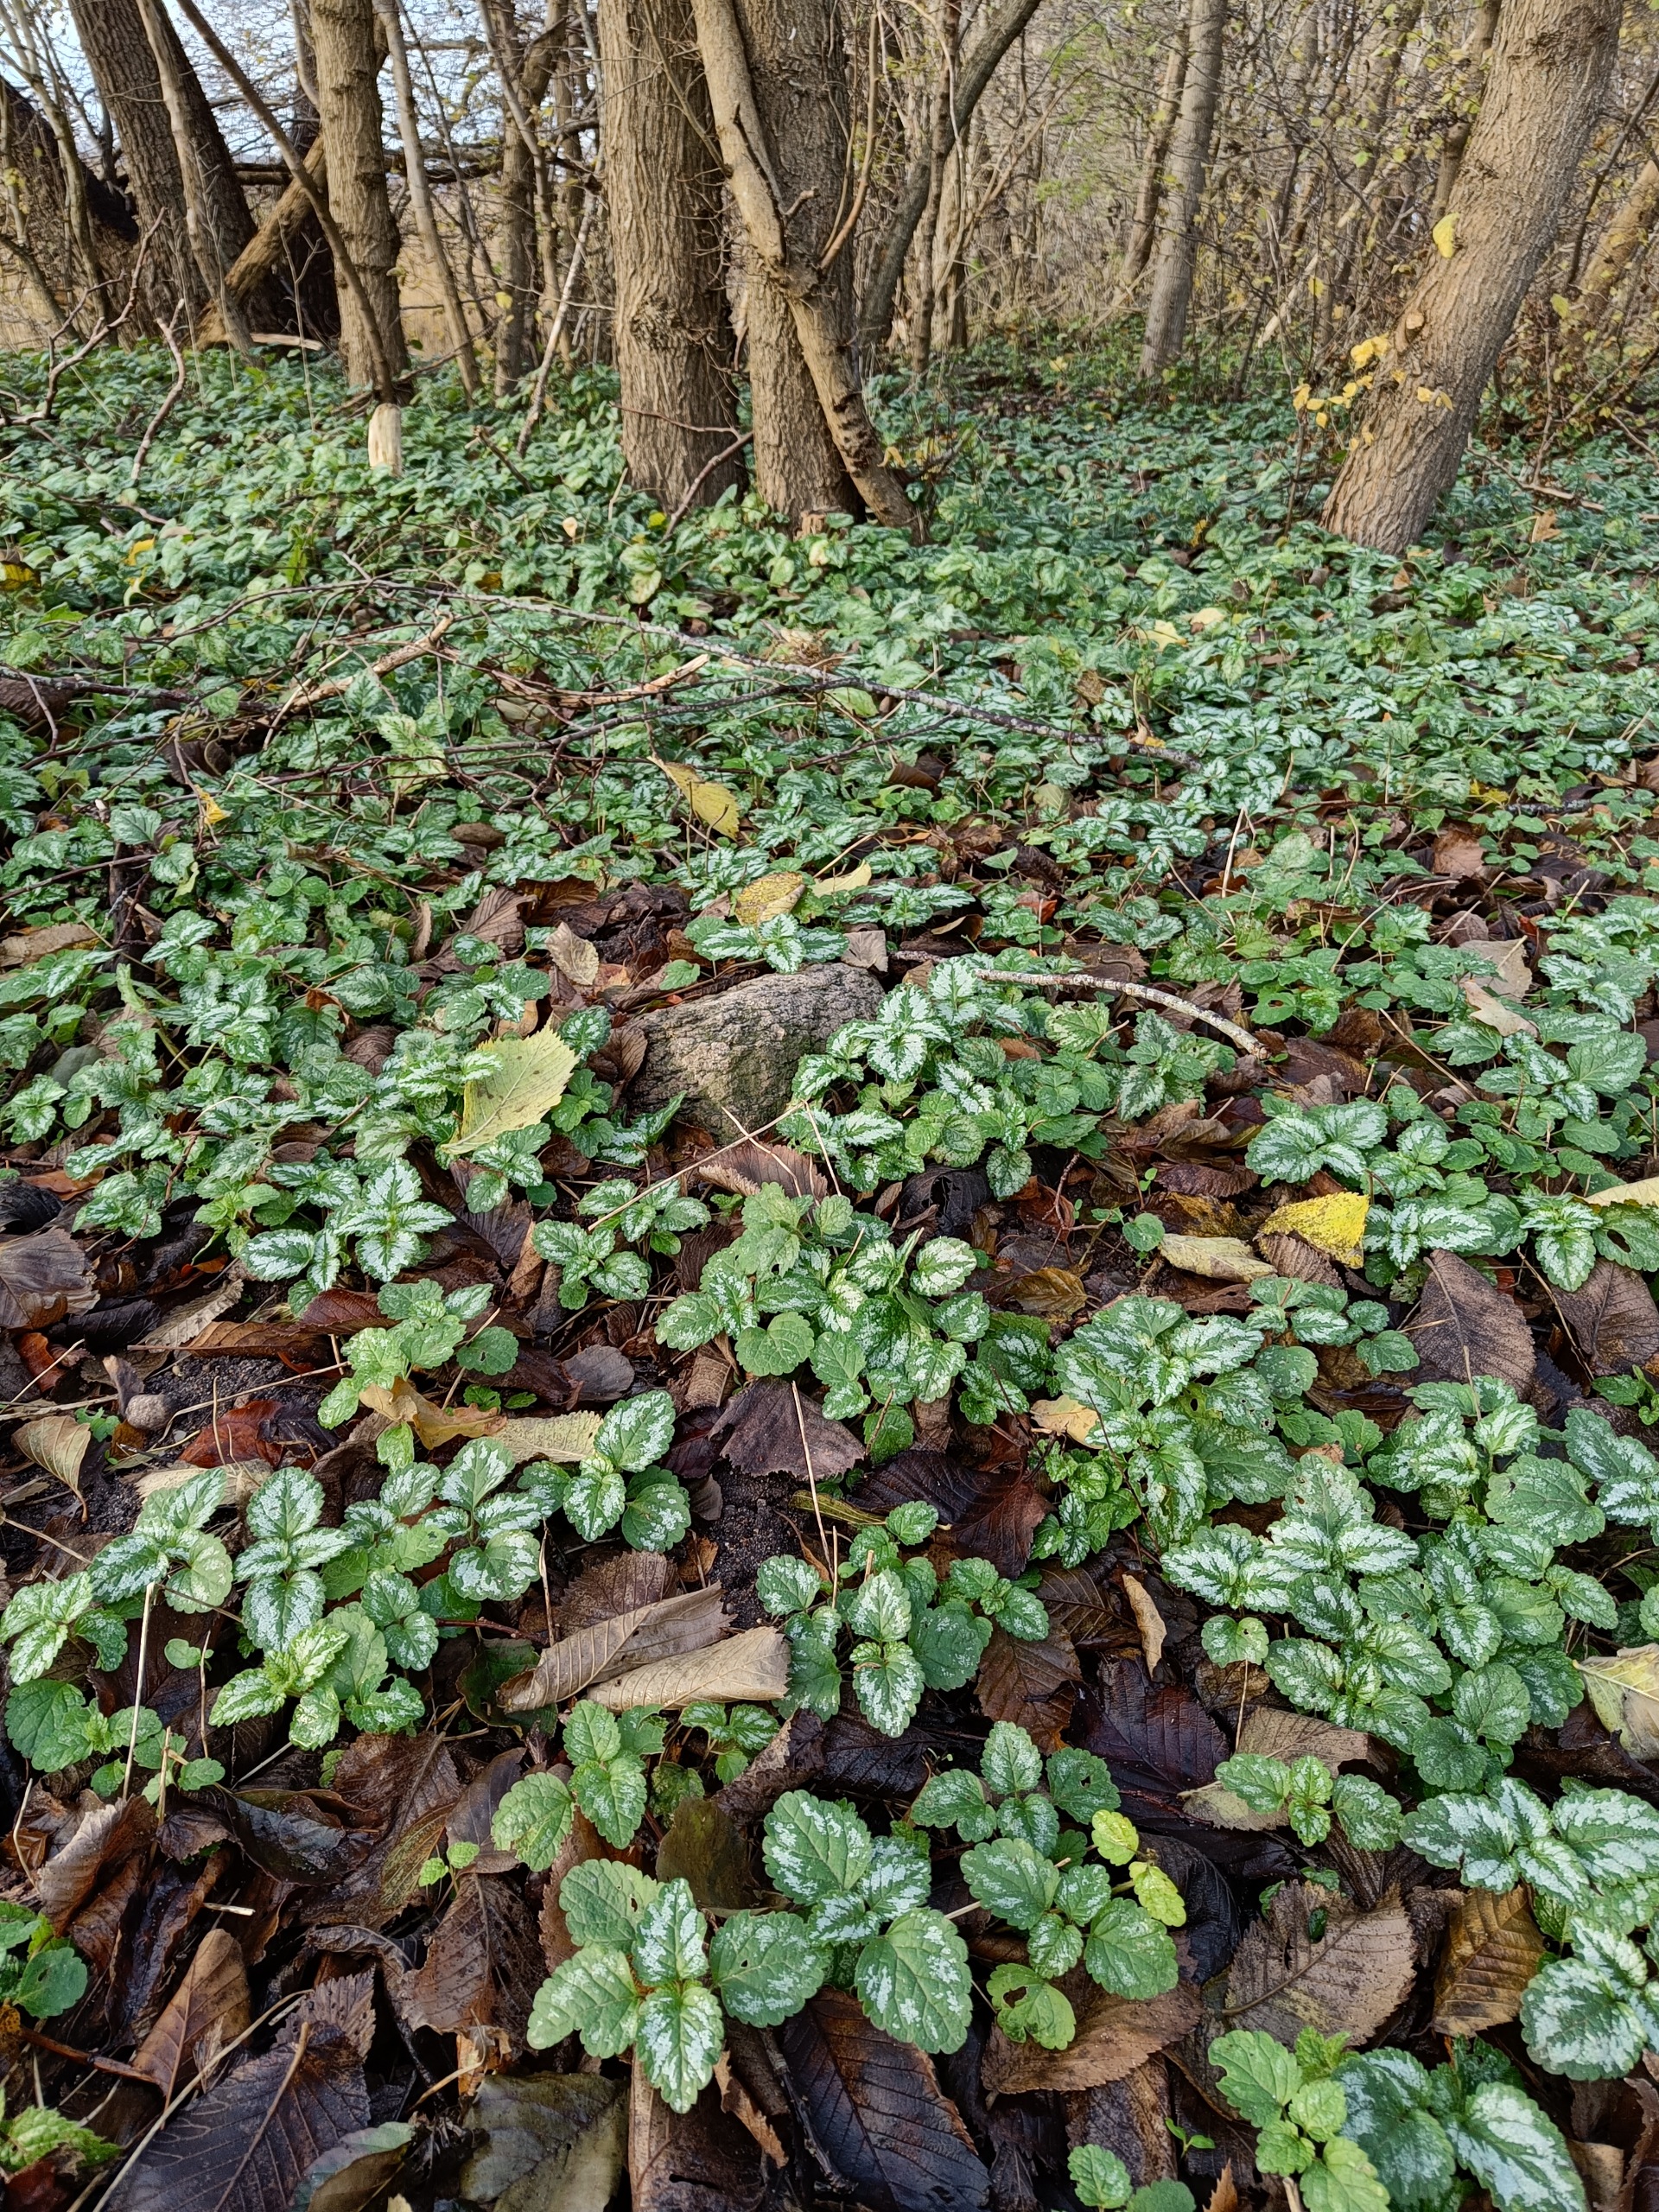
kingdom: Plantae
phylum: Tracheophyta
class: Magnoliopsida
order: Lamiales
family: Lamiaceae
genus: Lamium
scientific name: Lamium galeobdolon
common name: Have-guldnælde
